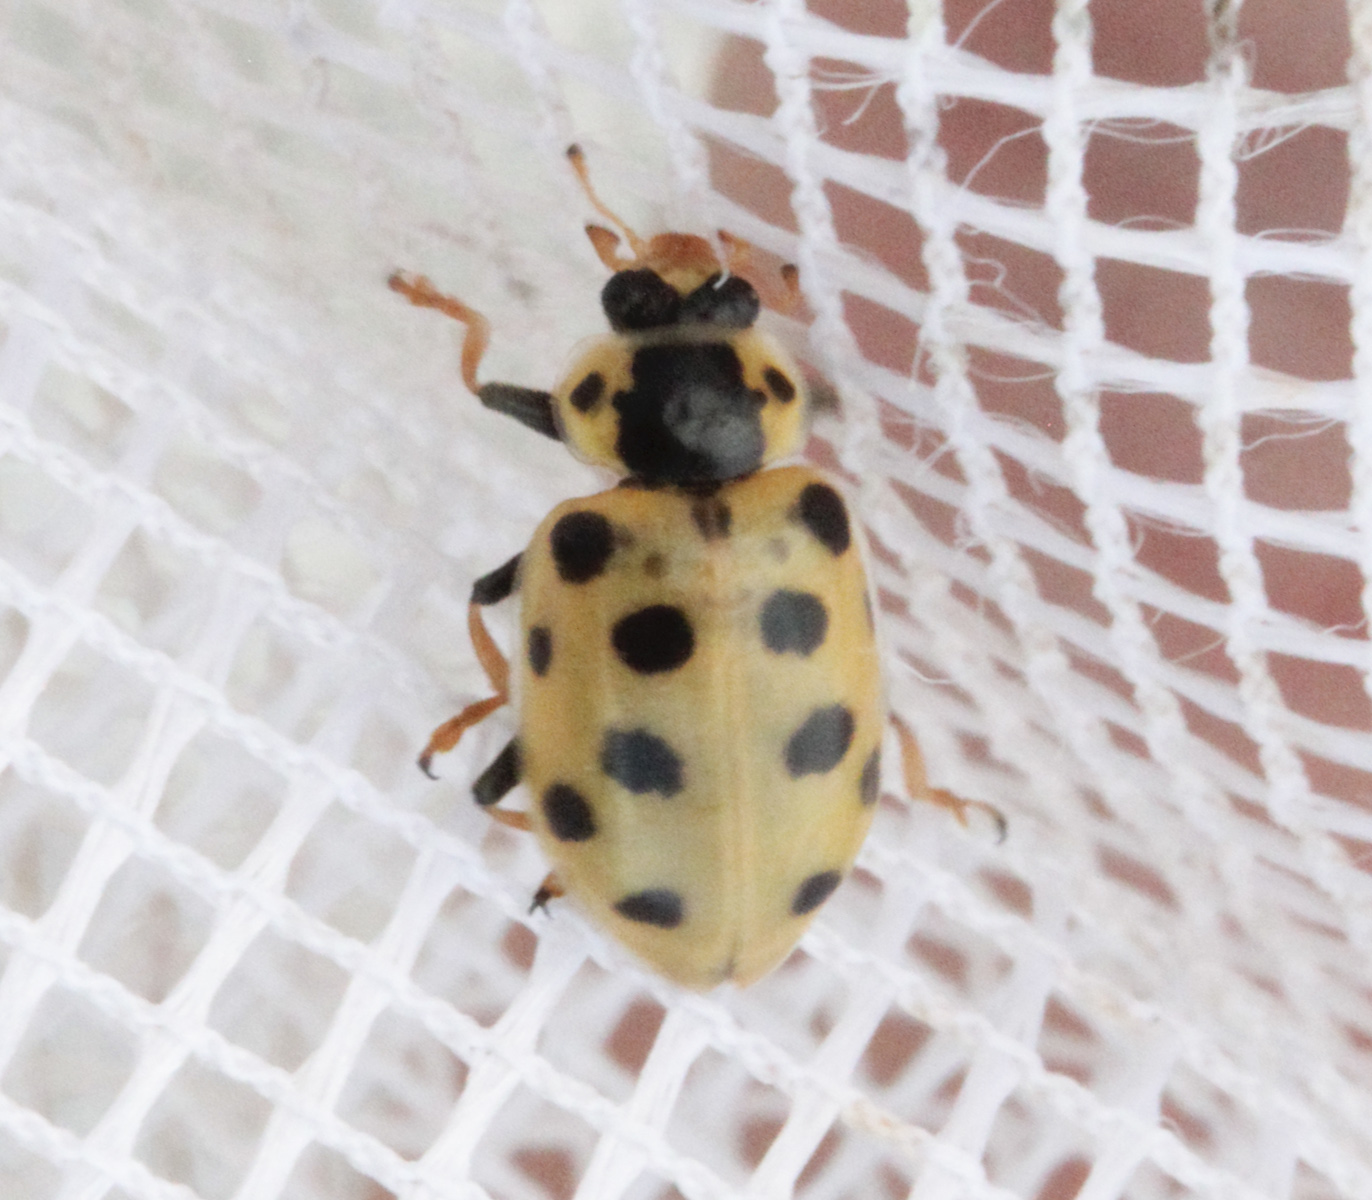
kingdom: Animalia
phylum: Arthropoda
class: Insecta
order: Coleoptera
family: Coccinellidae
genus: Hippodamia
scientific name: Hippodamia tredecimpunctata
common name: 13-spot ladybird
